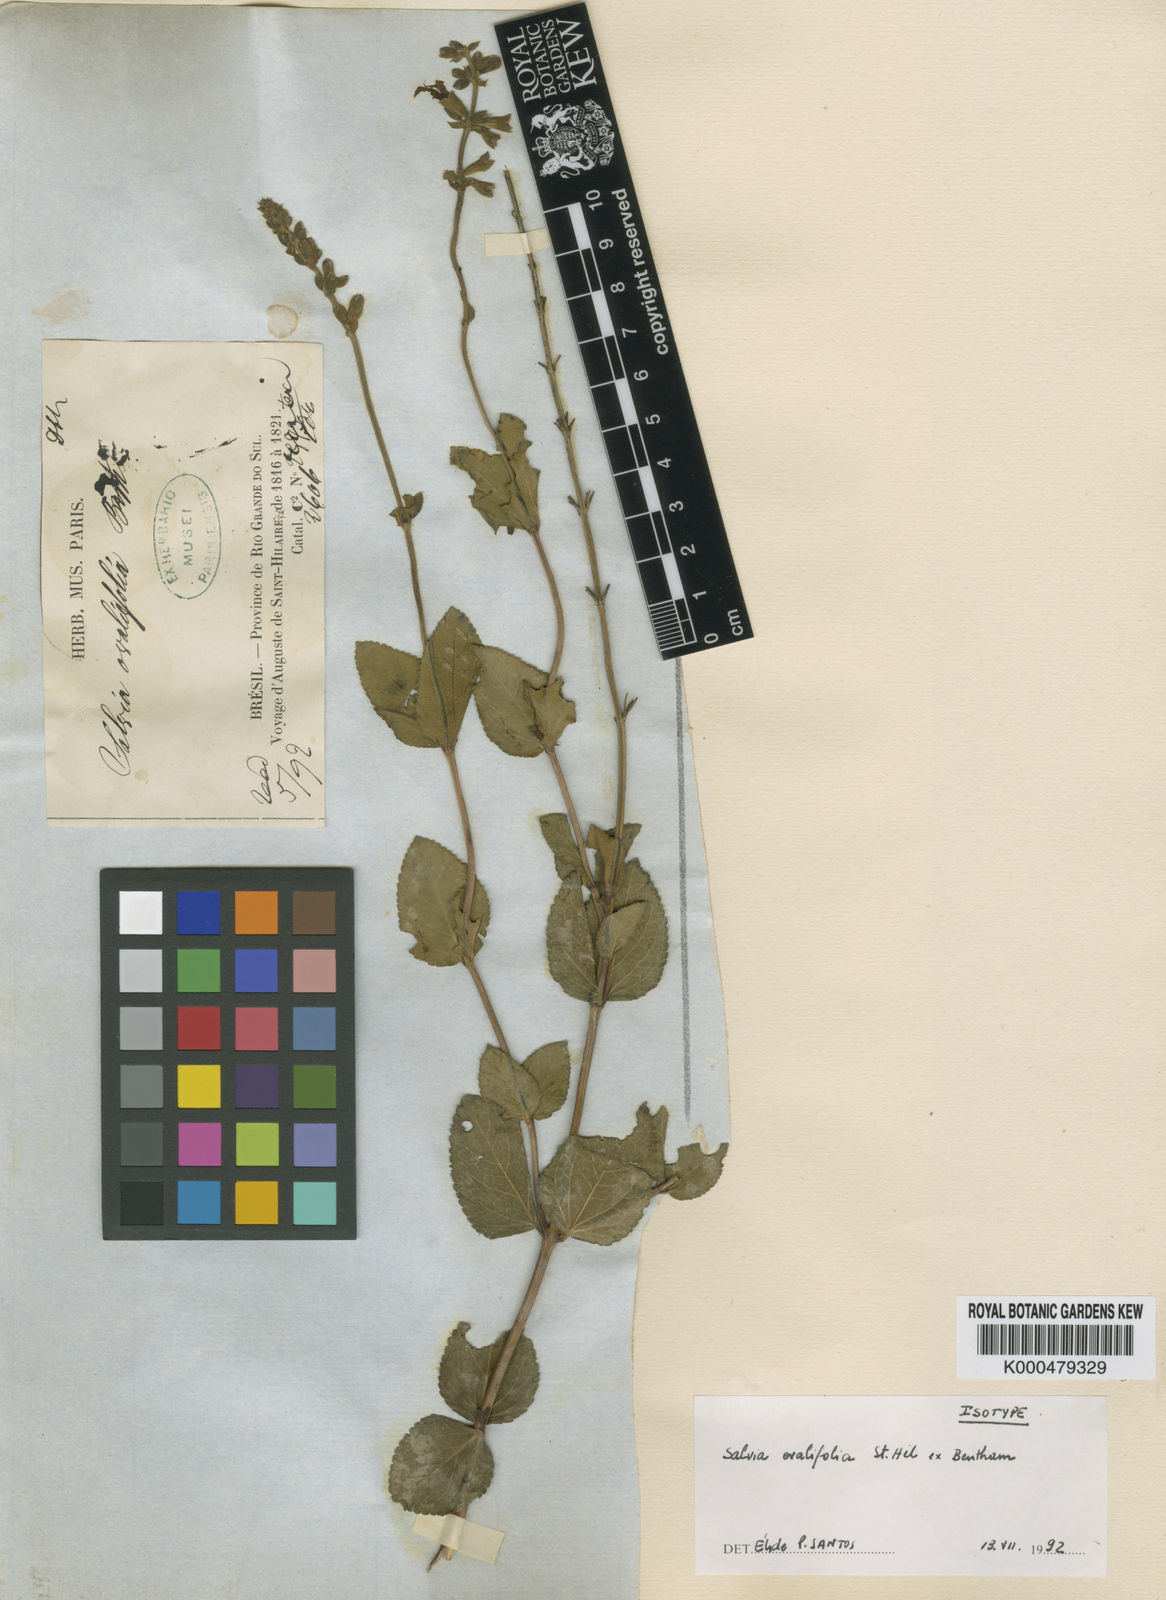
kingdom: Plantae
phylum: Tracheophyta
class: Magnoliopsida
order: Lamiales
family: Lamiaceae
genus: Salvia
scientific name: Salvia ovalifolia
